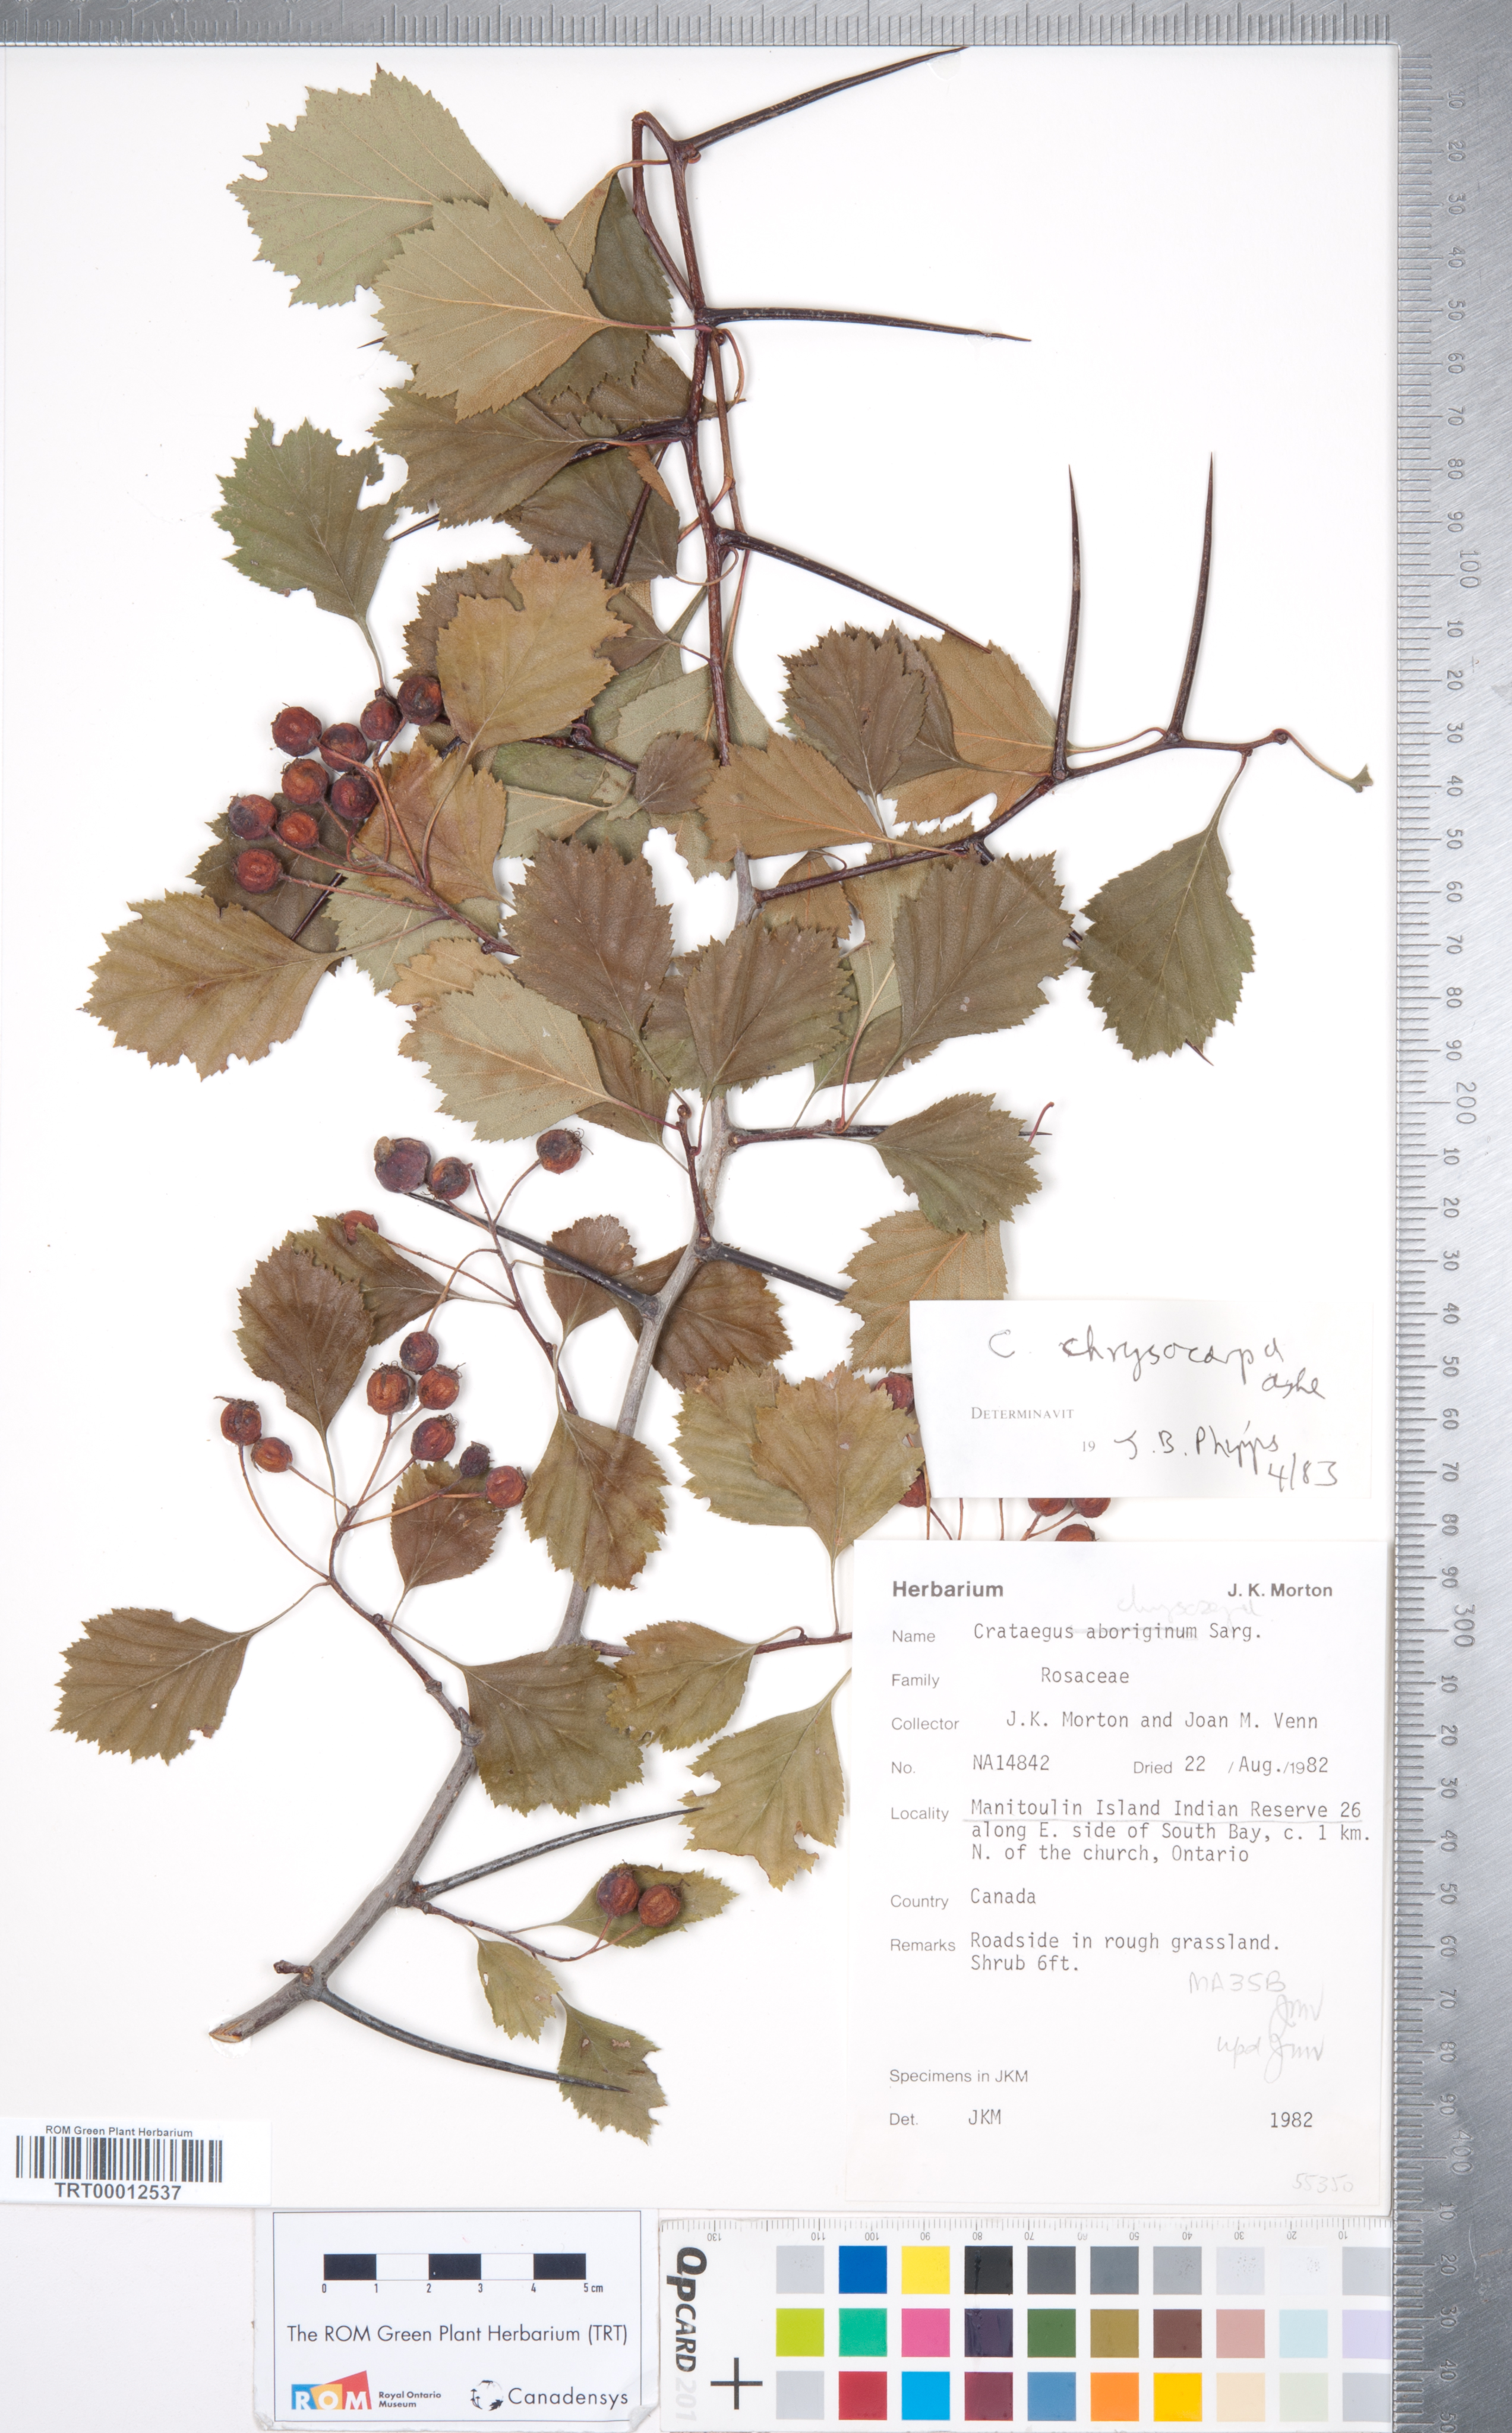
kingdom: Plantae
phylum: Tracheophyta
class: Magnoliopsida
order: Rosales
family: Rosaceae
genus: Crataegus
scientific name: Crataegus chrysocarpa
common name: Fire-berry hawthorn
